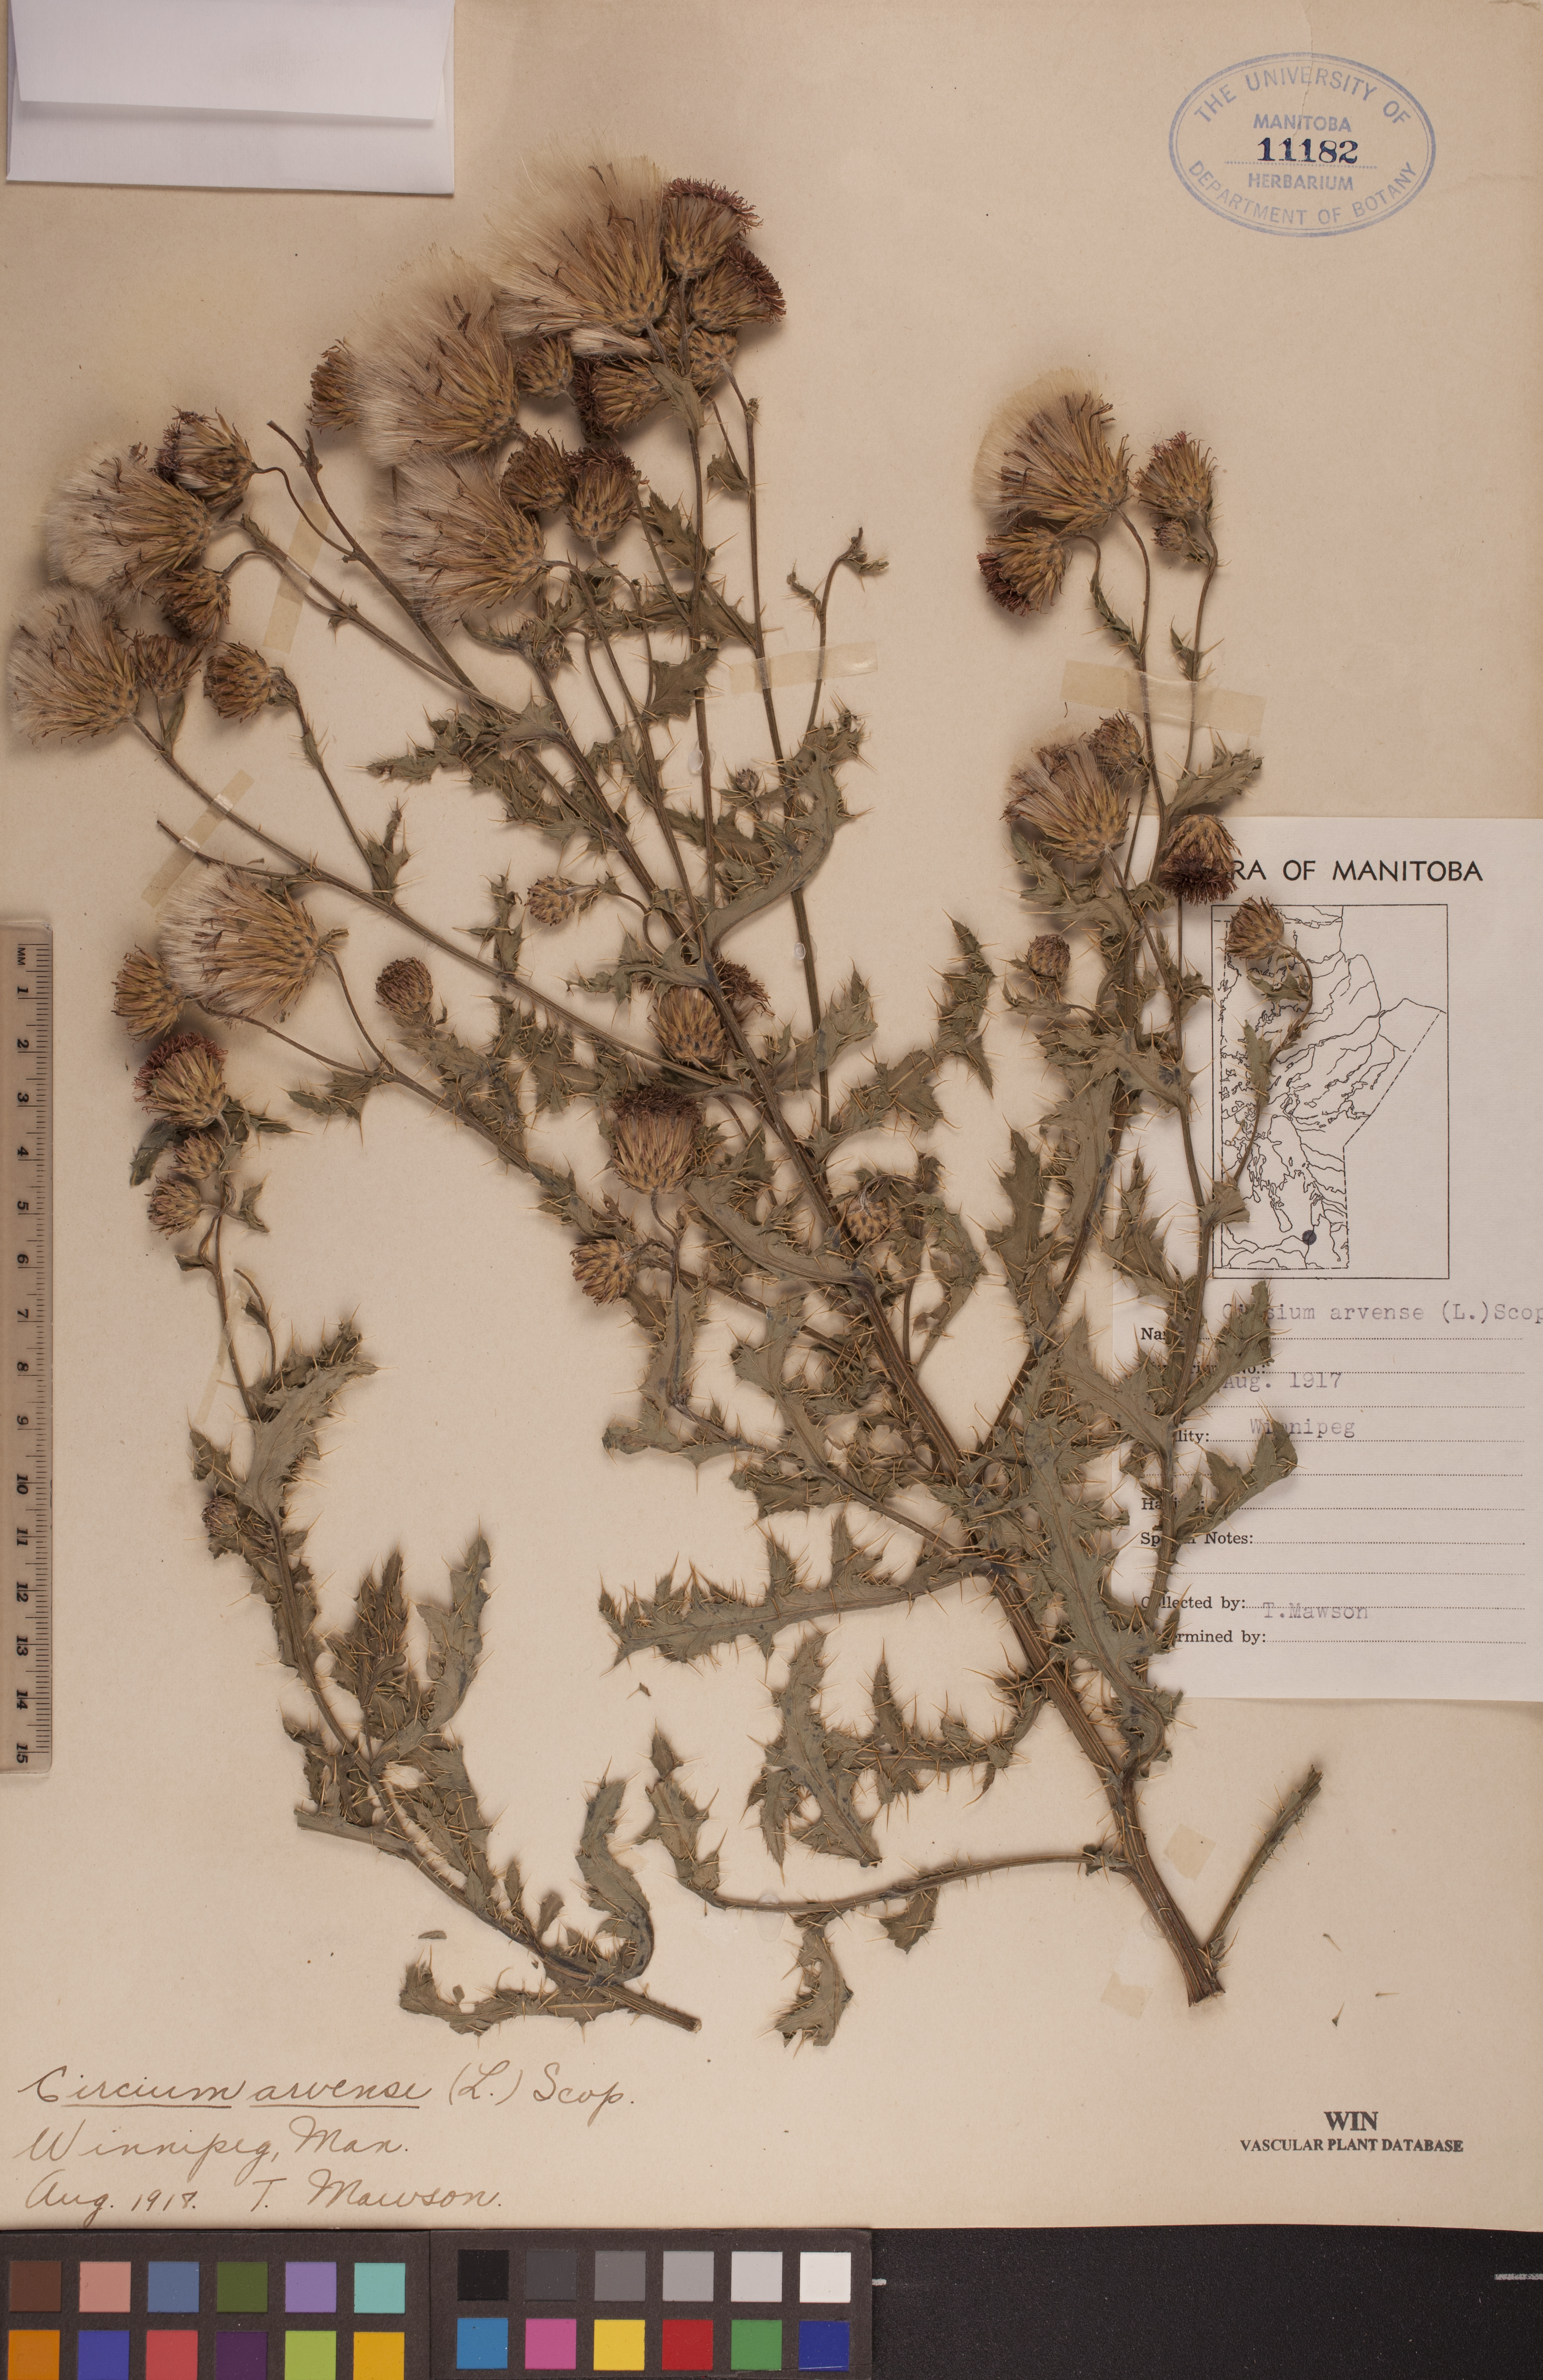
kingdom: Plantae
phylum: Tracheophyta
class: Magnoliopsida
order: Asterales
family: Asteraceae
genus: Cirsium
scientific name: Cirsium arvense
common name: Creeping thistle
